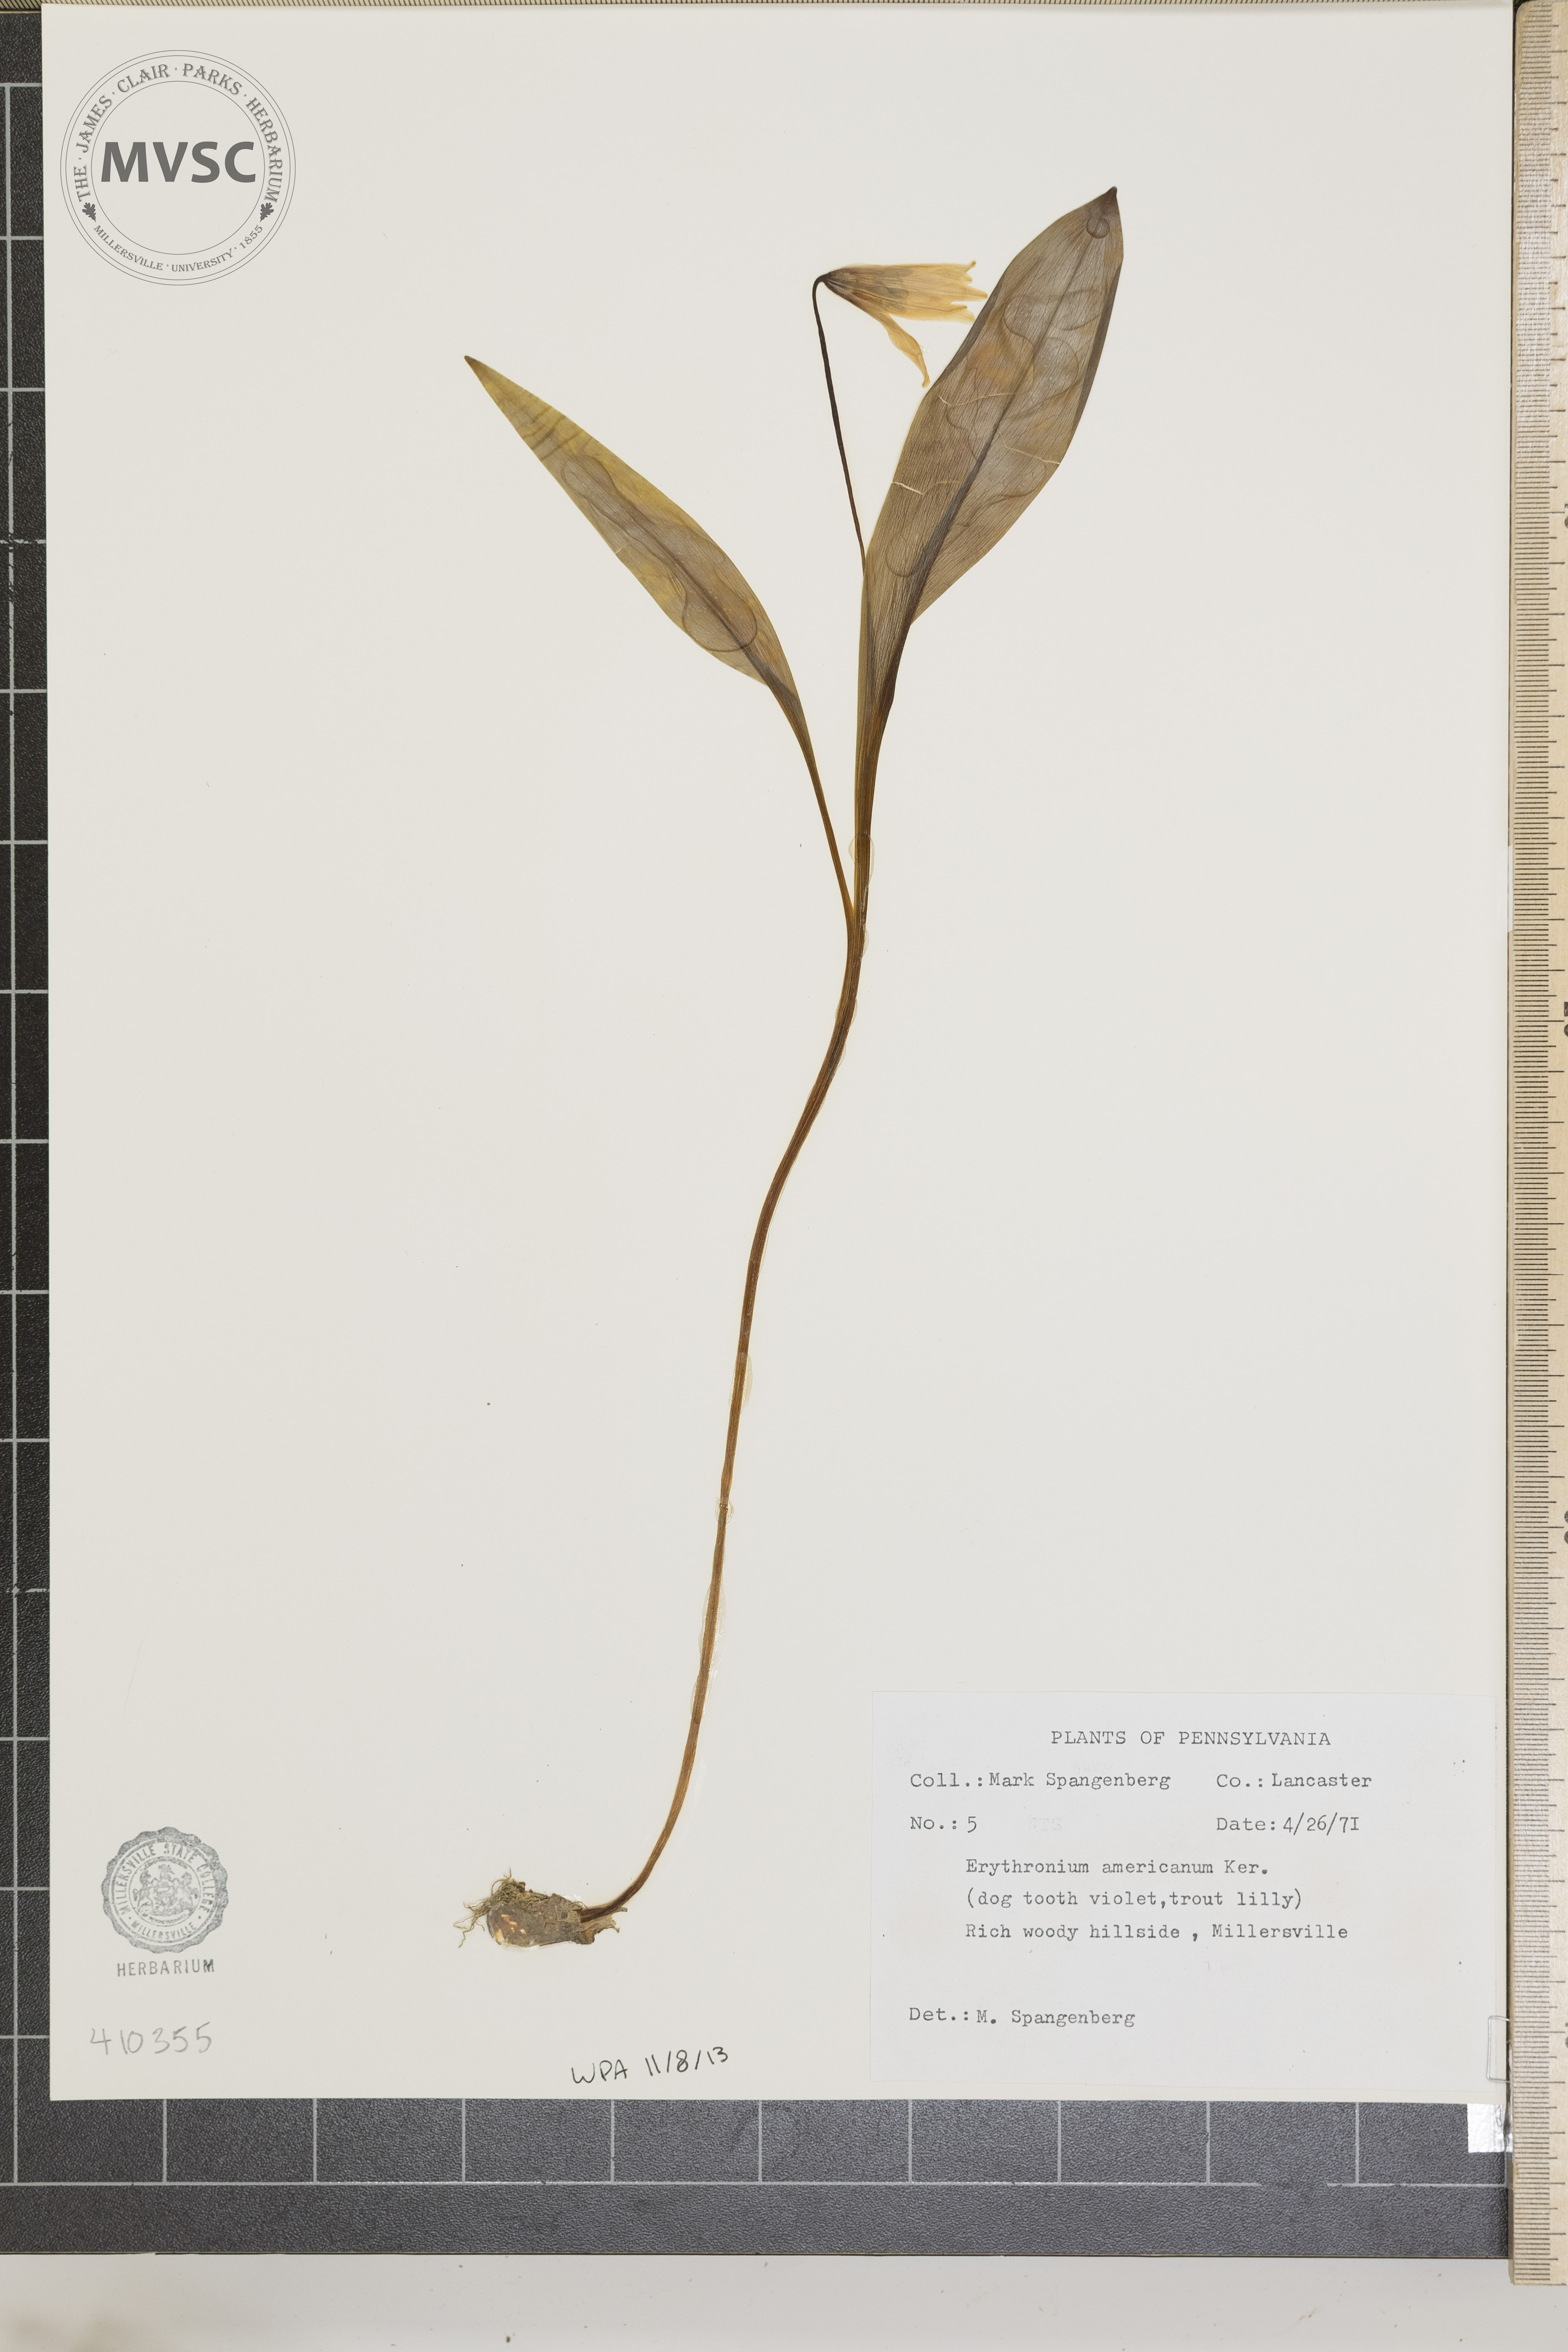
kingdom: Plantae
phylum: Tracheophyta
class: Liliopsida
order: Liliales
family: Liliaceae
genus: Erythronium
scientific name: Erythronium americanum
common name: Yellow adder's-tongue
